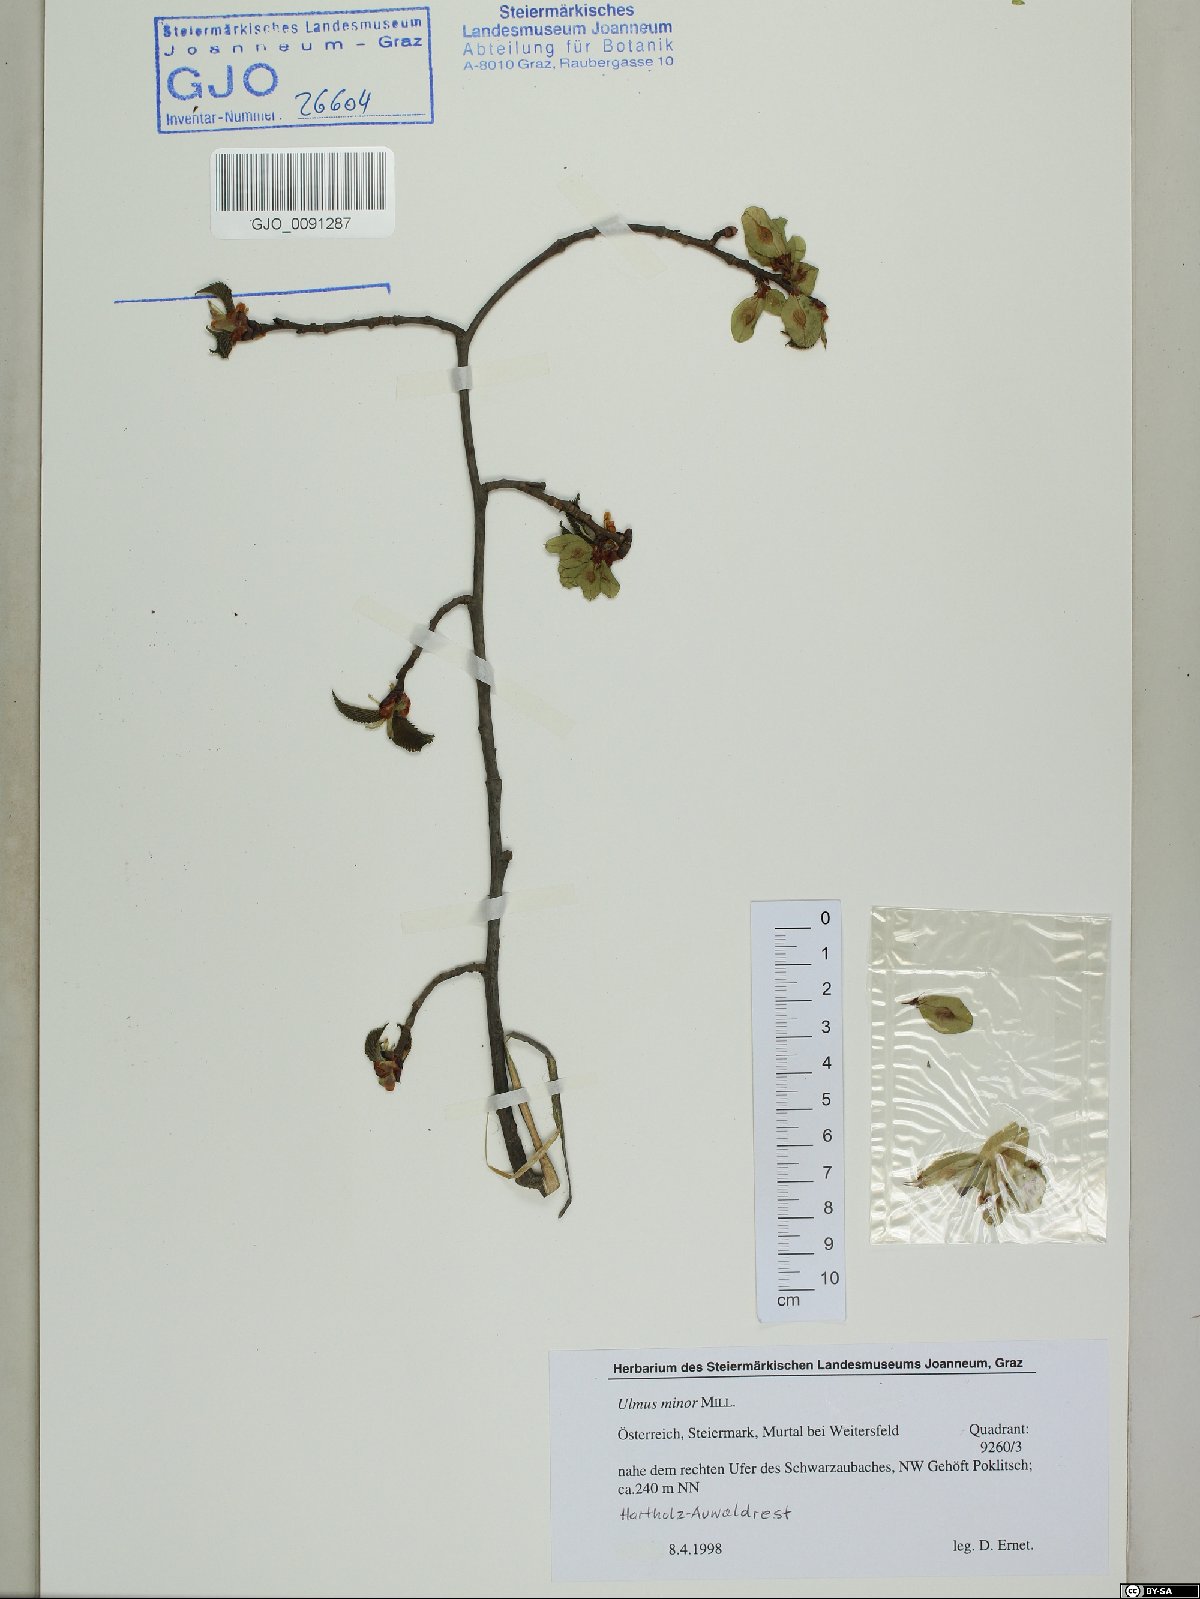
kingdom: Plantae
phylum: Tracheophyta
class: Magnoliopsida
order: Rosales
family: Ulmaceae
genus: Ulmus
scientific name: Ulmus minor
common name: Small-leaved elm
